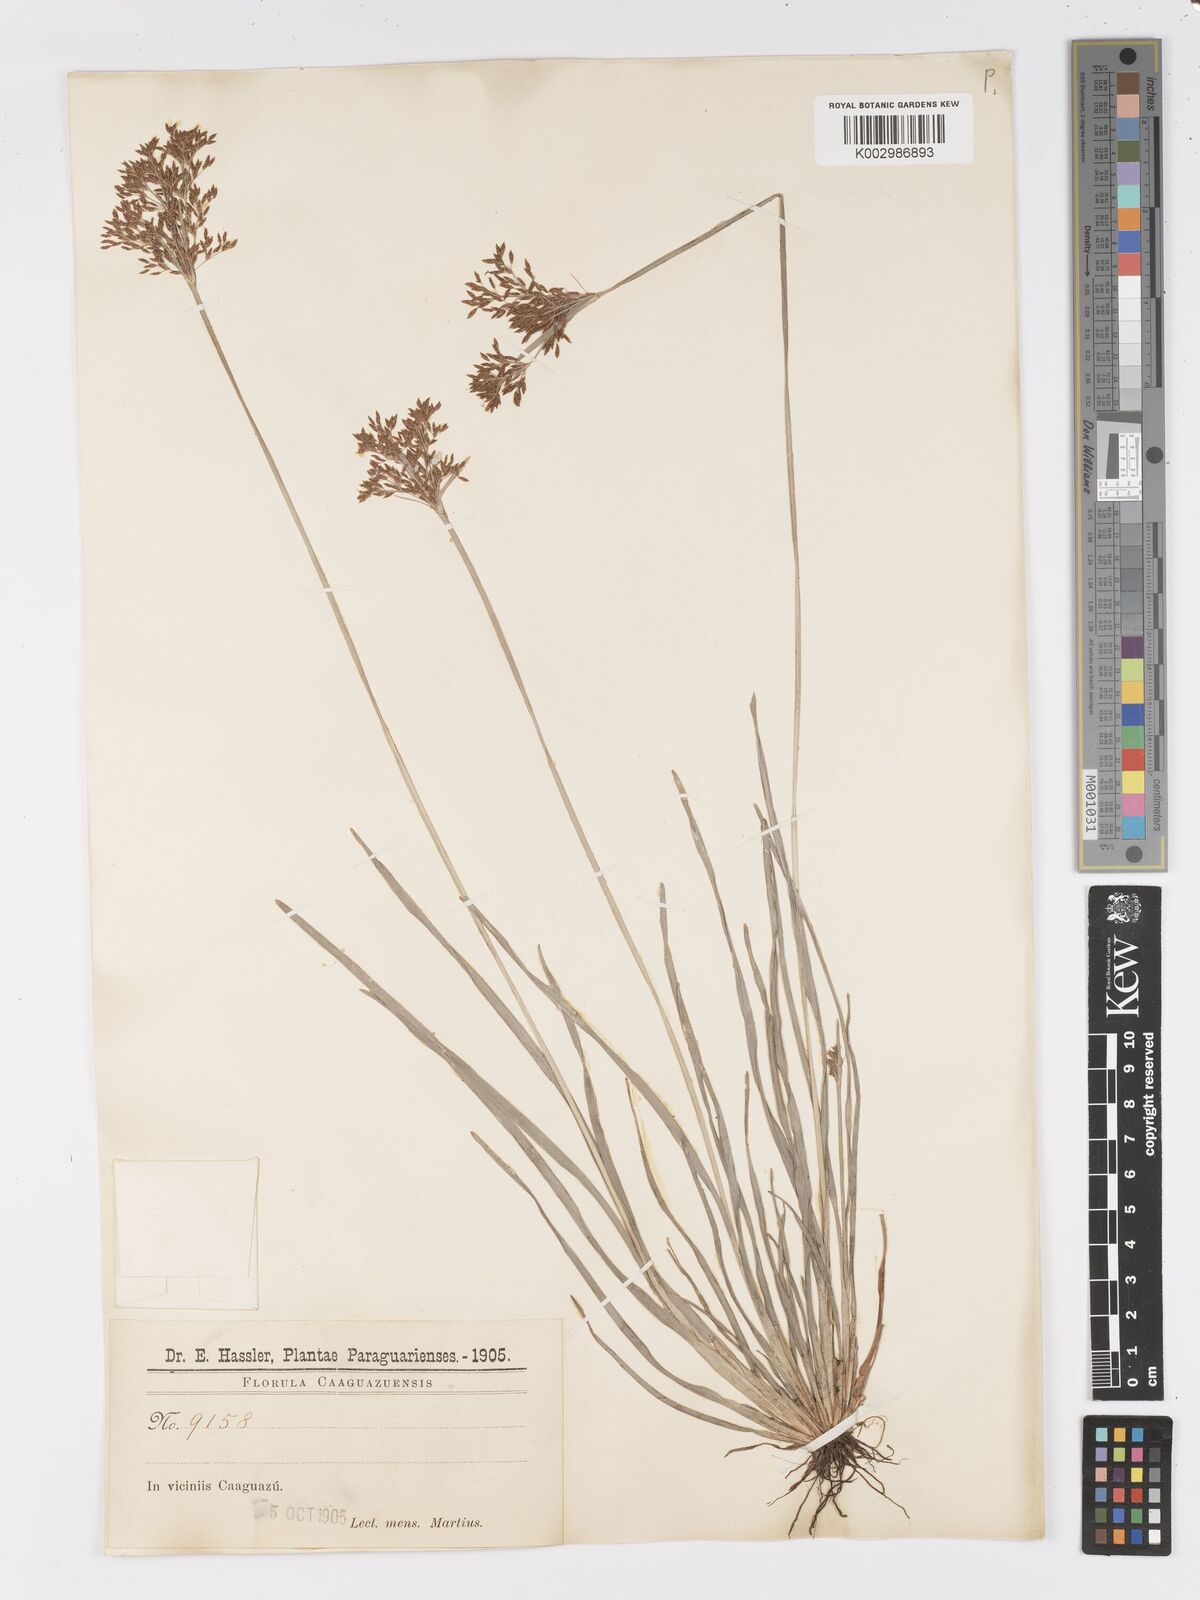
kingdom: Plantae
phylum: Tracheophyta
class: Liliopsida
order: Poales
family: Cyperaceae
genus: Fimbristylis
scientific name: Fimbristylis complanata
